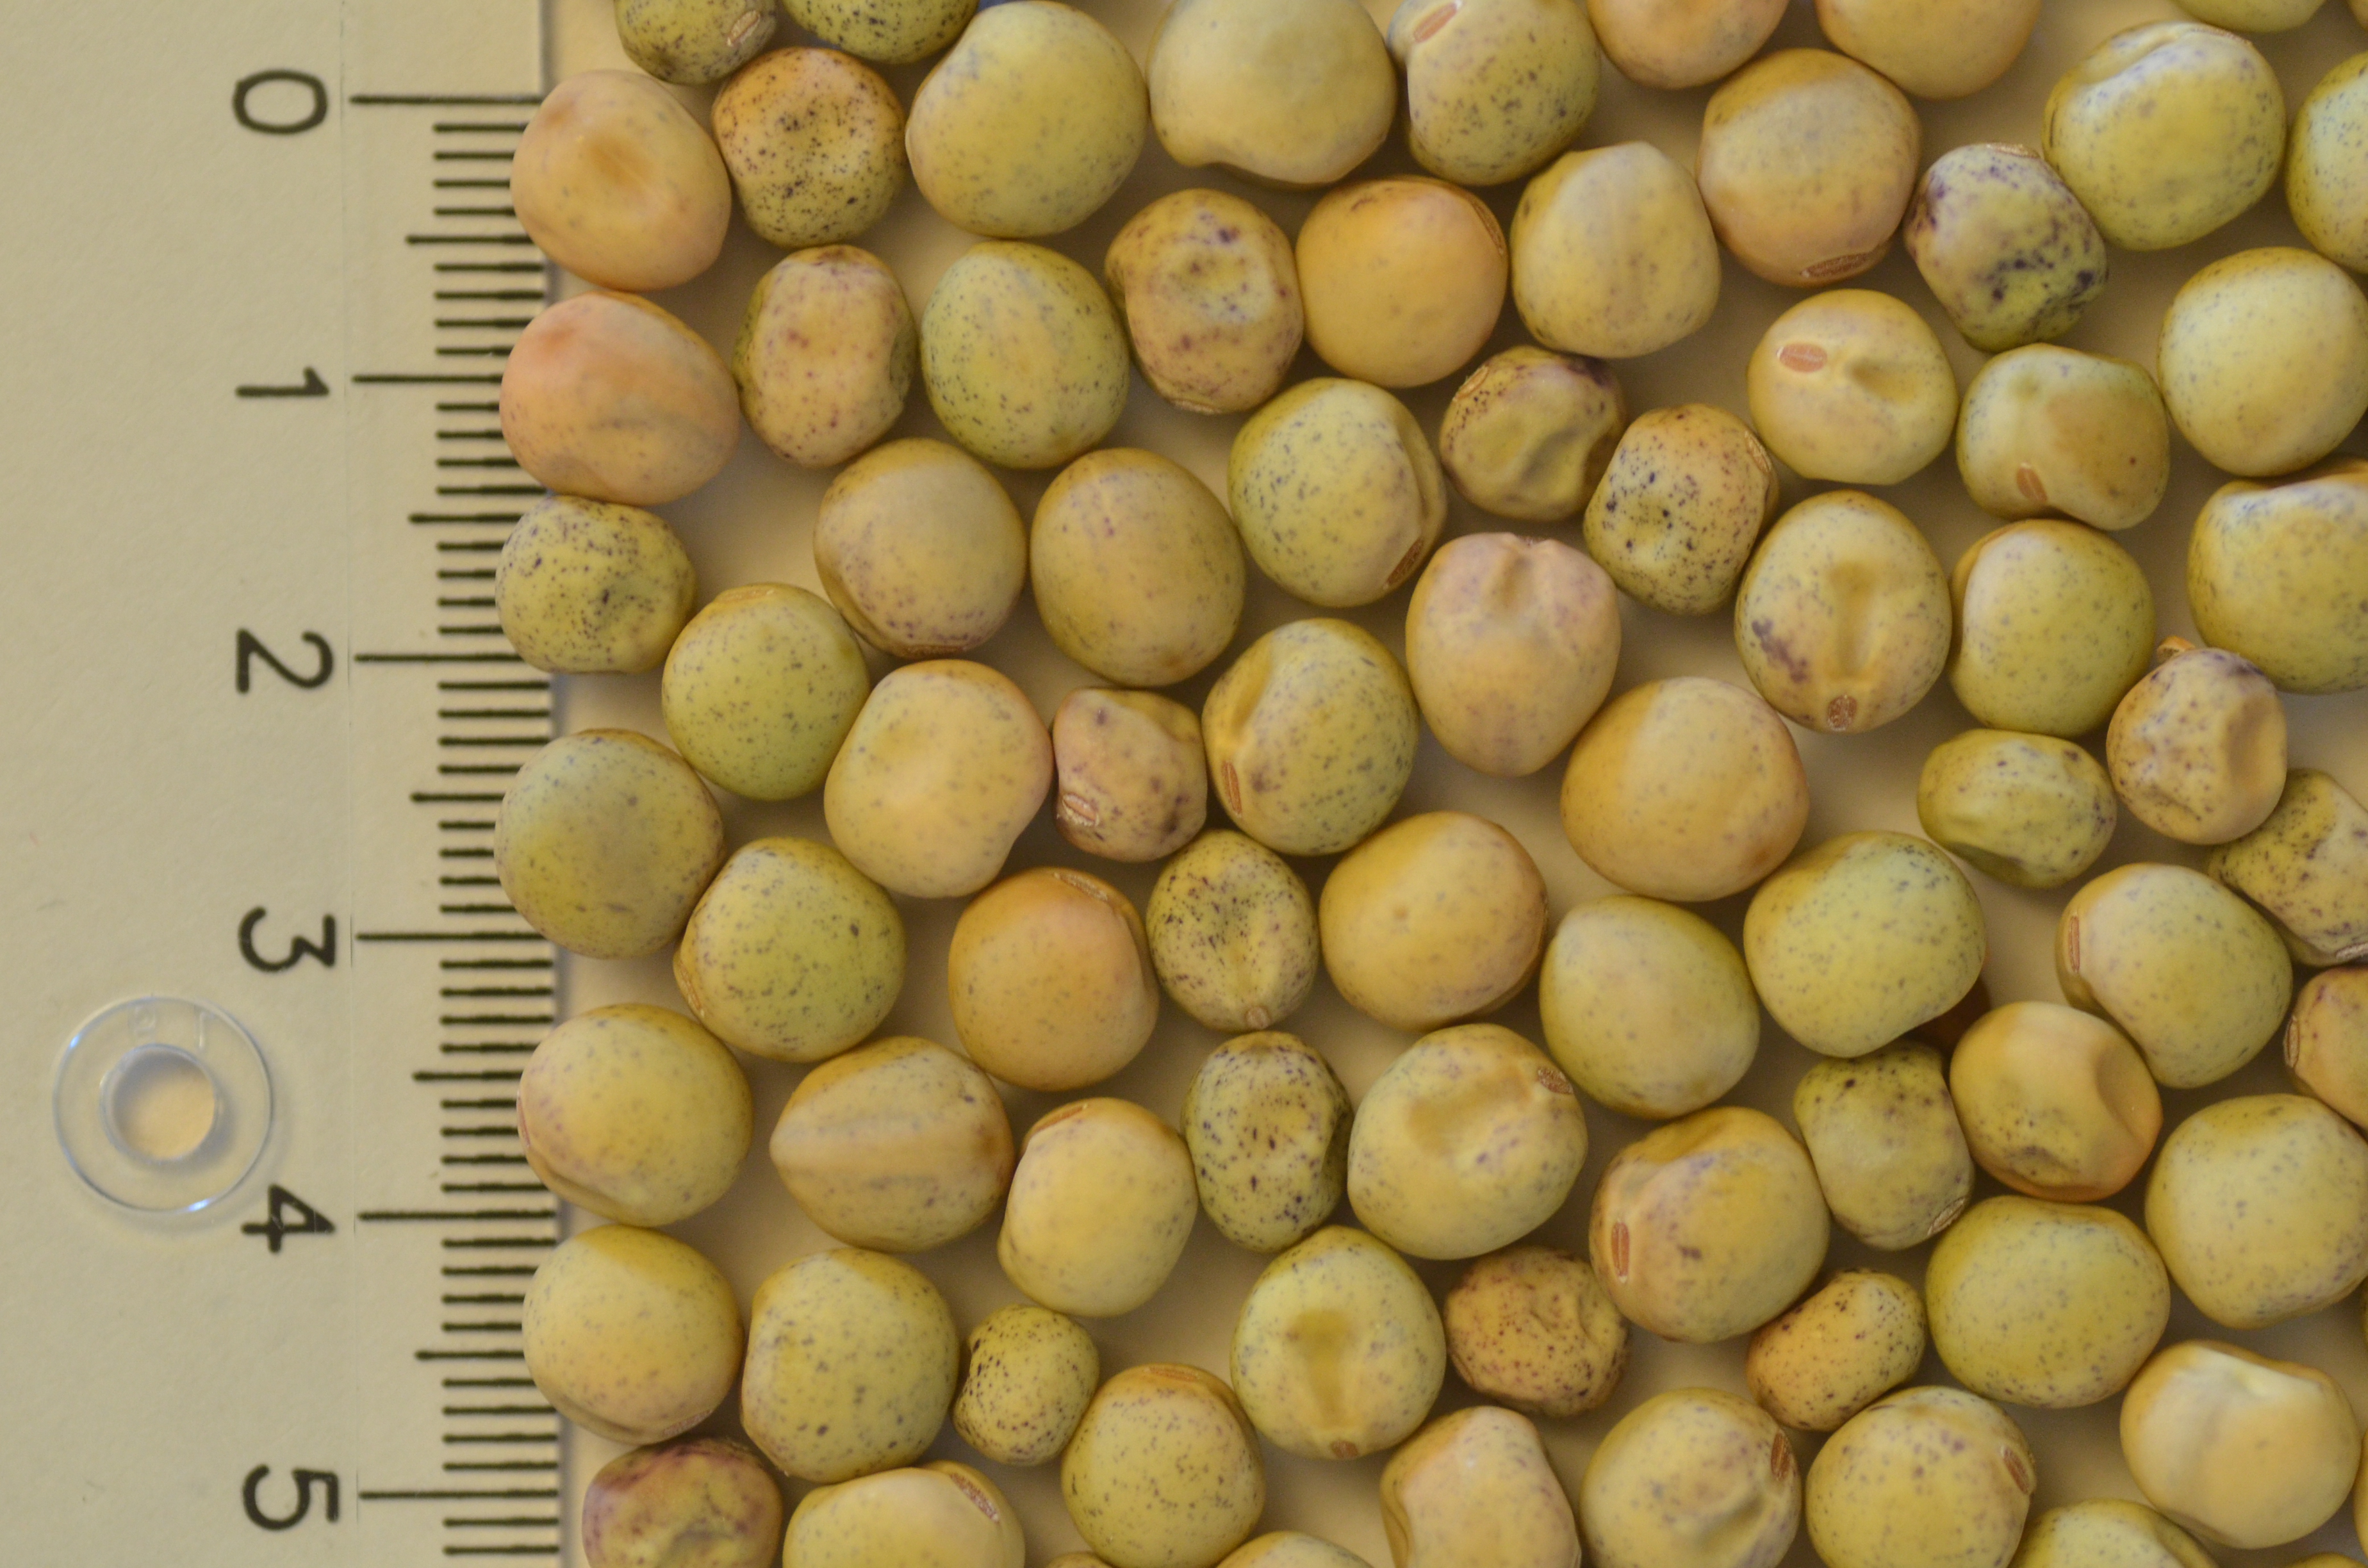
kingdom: Plantae
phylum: Tracheophyta
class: Magnoliopsida
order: Fabales
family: Fabaceae
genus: Lathyrus
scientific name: Lathyrus oleraceus
